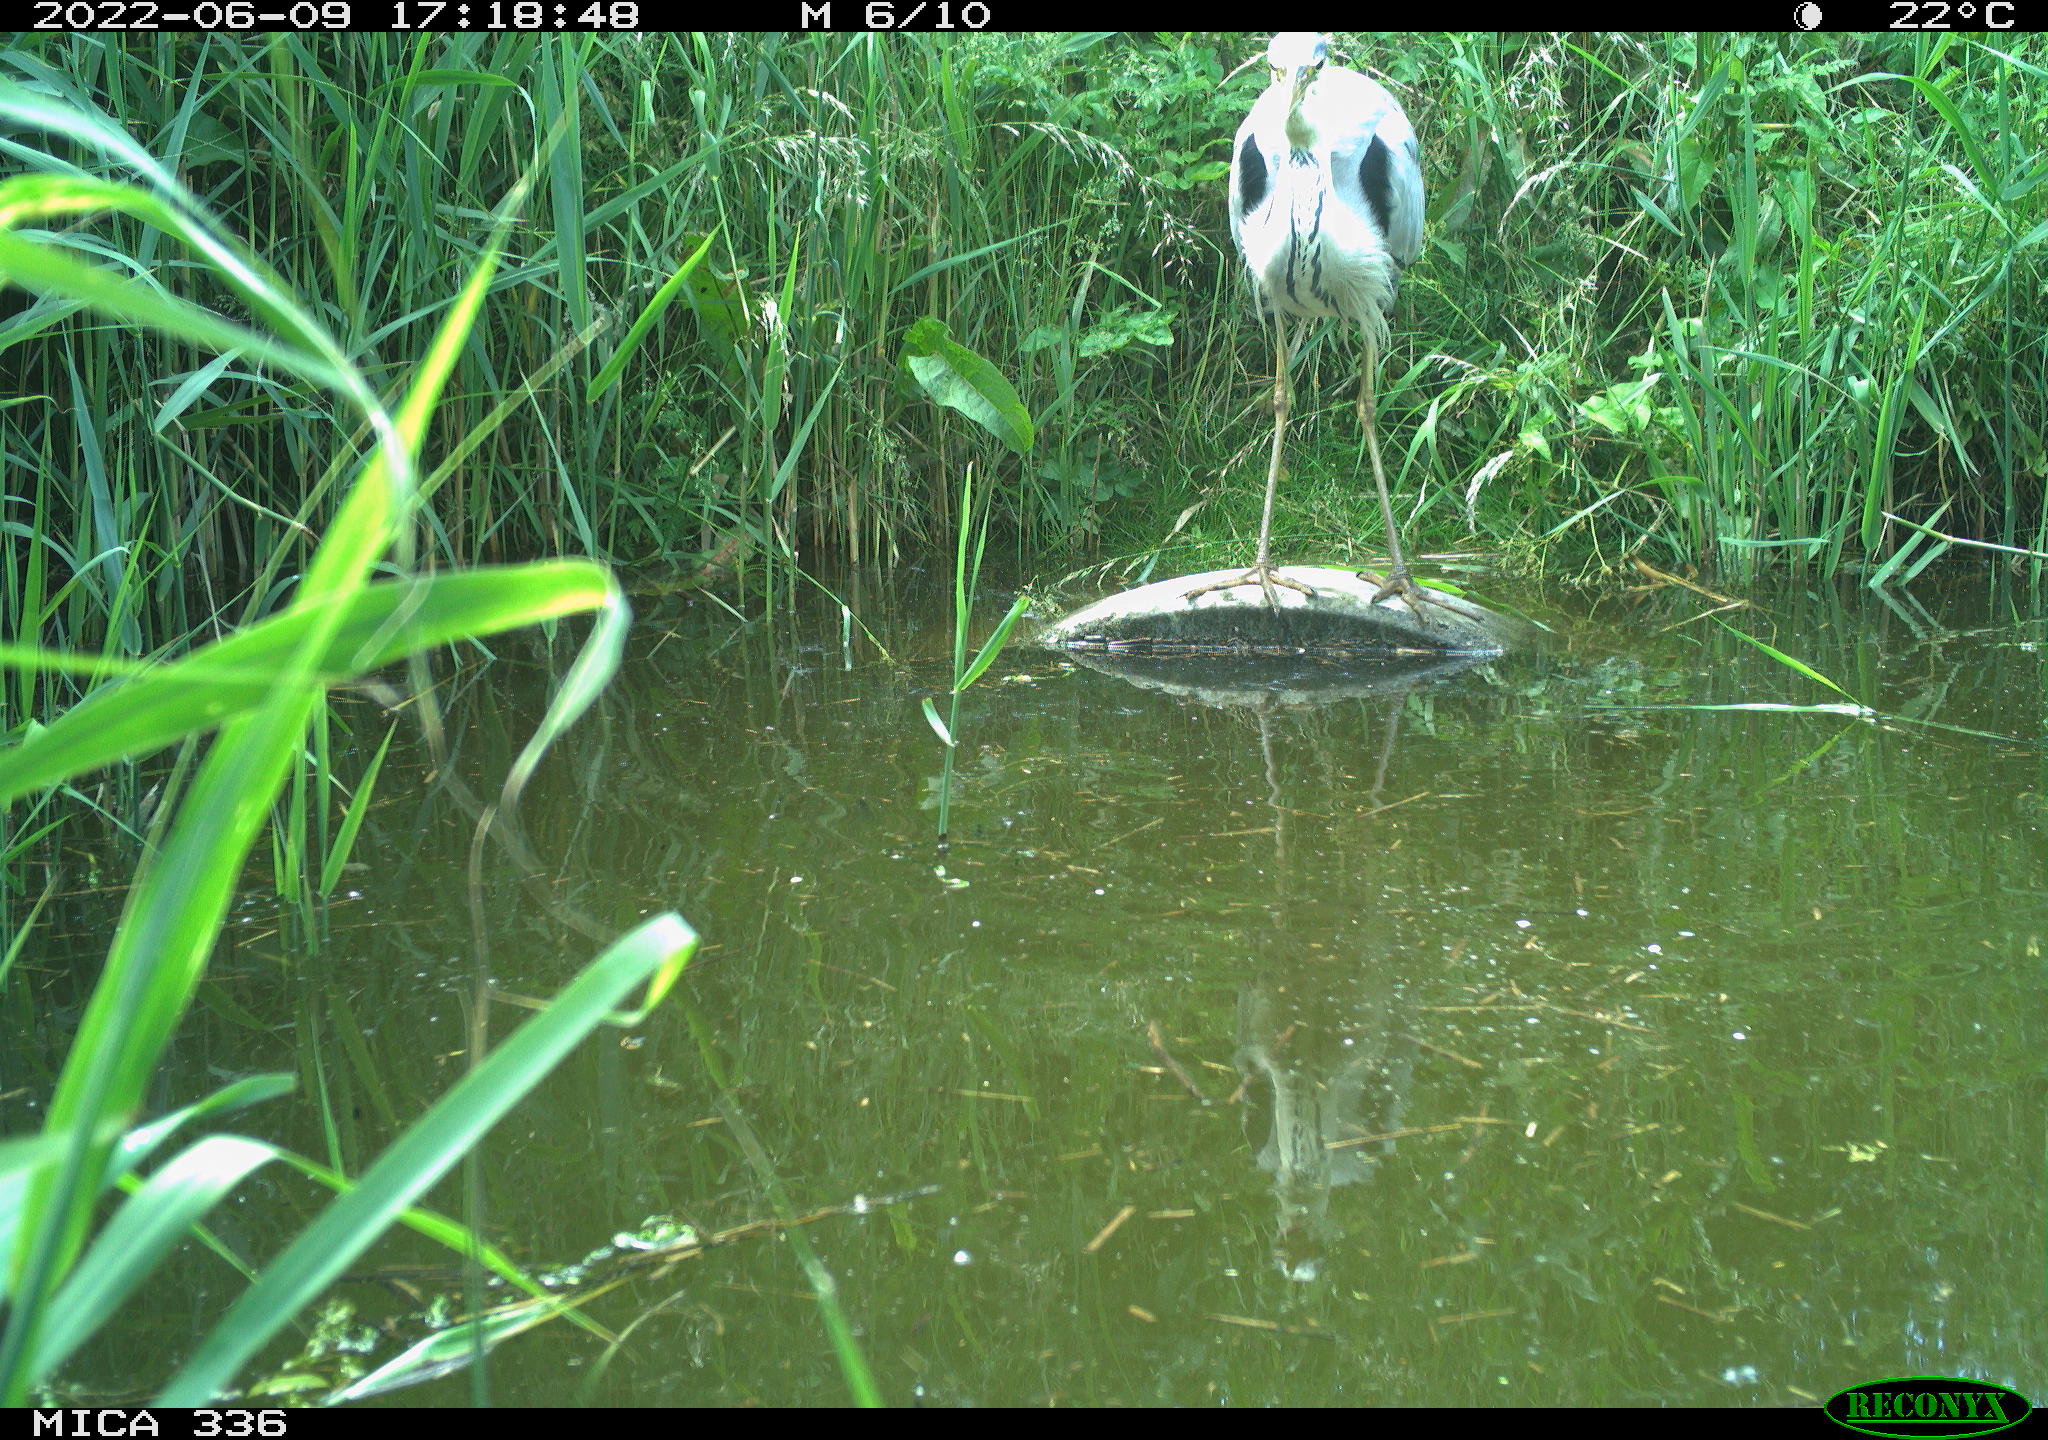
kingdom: Animalia
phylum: Chordata
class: Aves
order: Pelecaniformes
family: Ardeidae
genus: Ardea
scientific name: Ardea cinerea
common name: Grey heron
